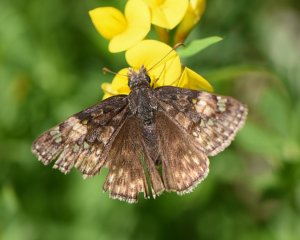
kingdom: Animalia
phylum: Arthropoda
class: Insecta
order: Lepidoptera
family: Hesperiidae
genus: Gesta
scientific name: Gesta
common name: Juvenal's Duskywing
